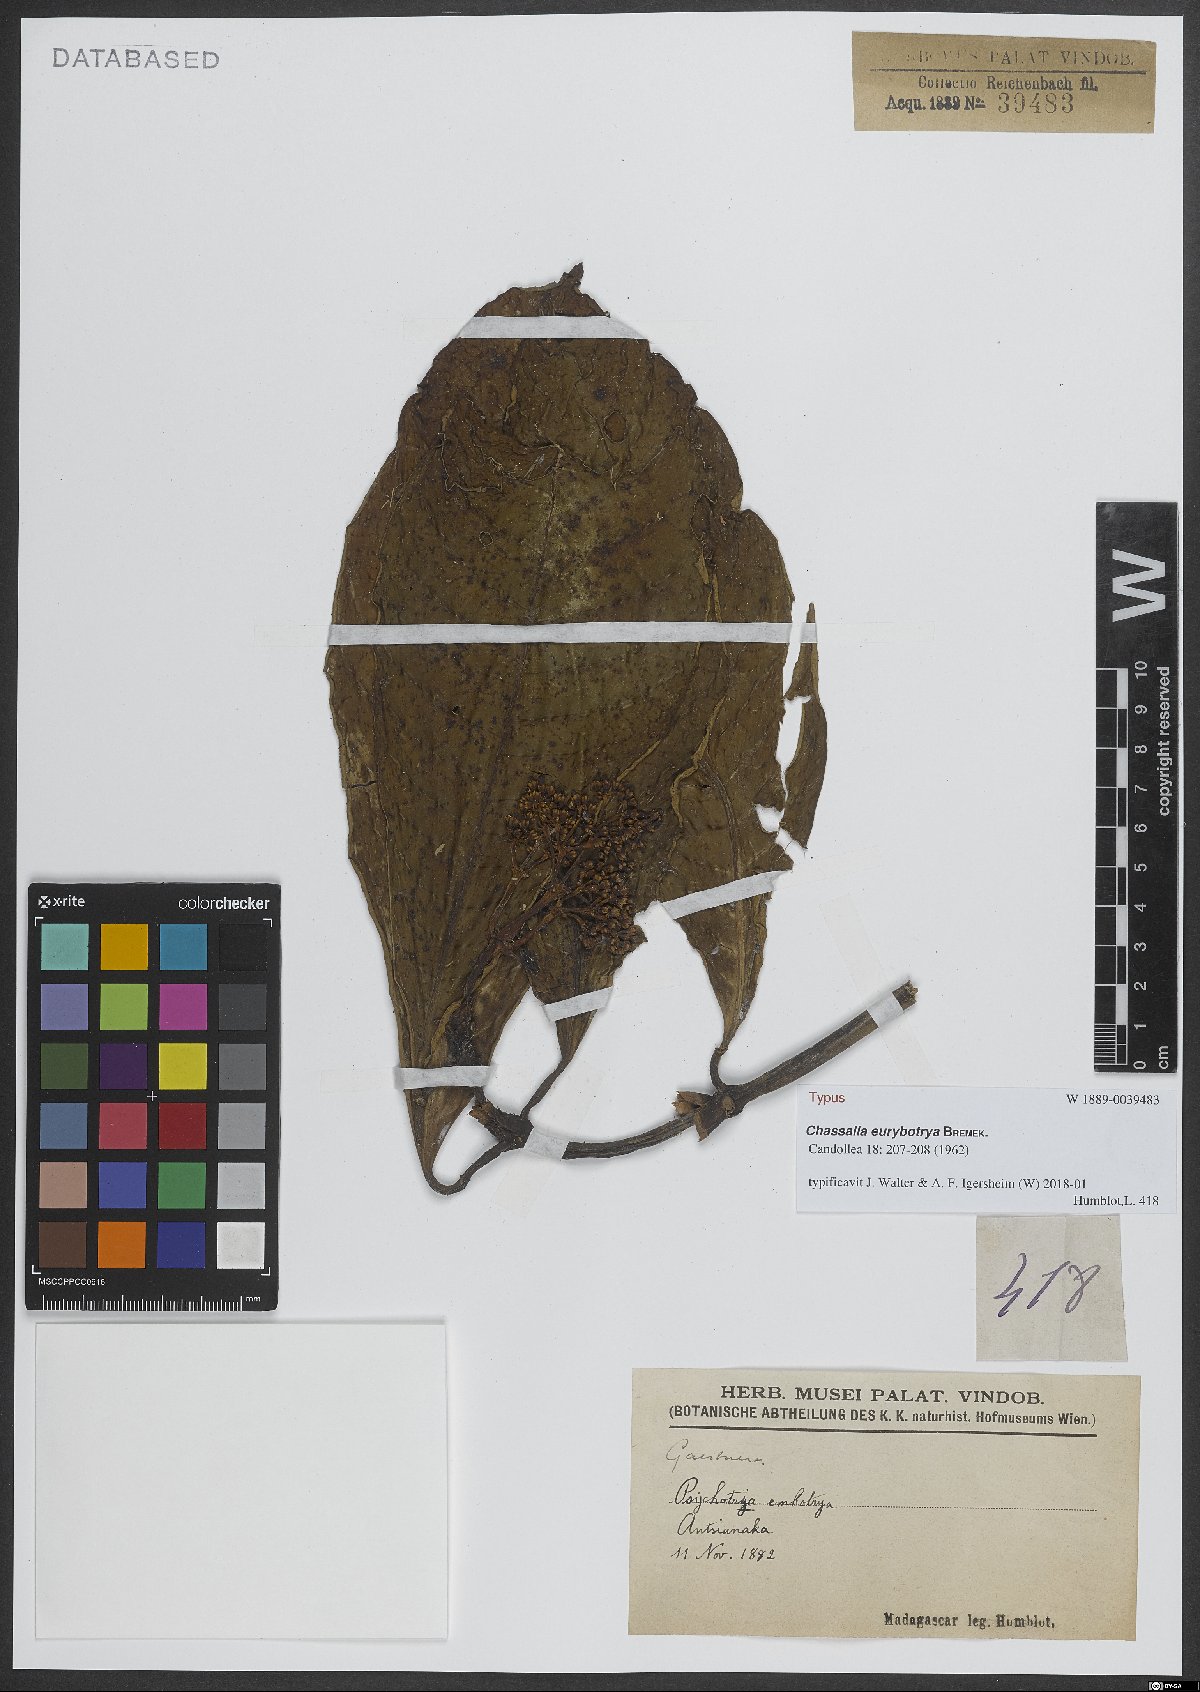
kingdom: Plantae
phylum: Tracheophyta
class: Magnoliopsida
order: Gentianales
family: Rubiaceae
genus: Chassalia
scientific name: Chassalia eurybotrya
